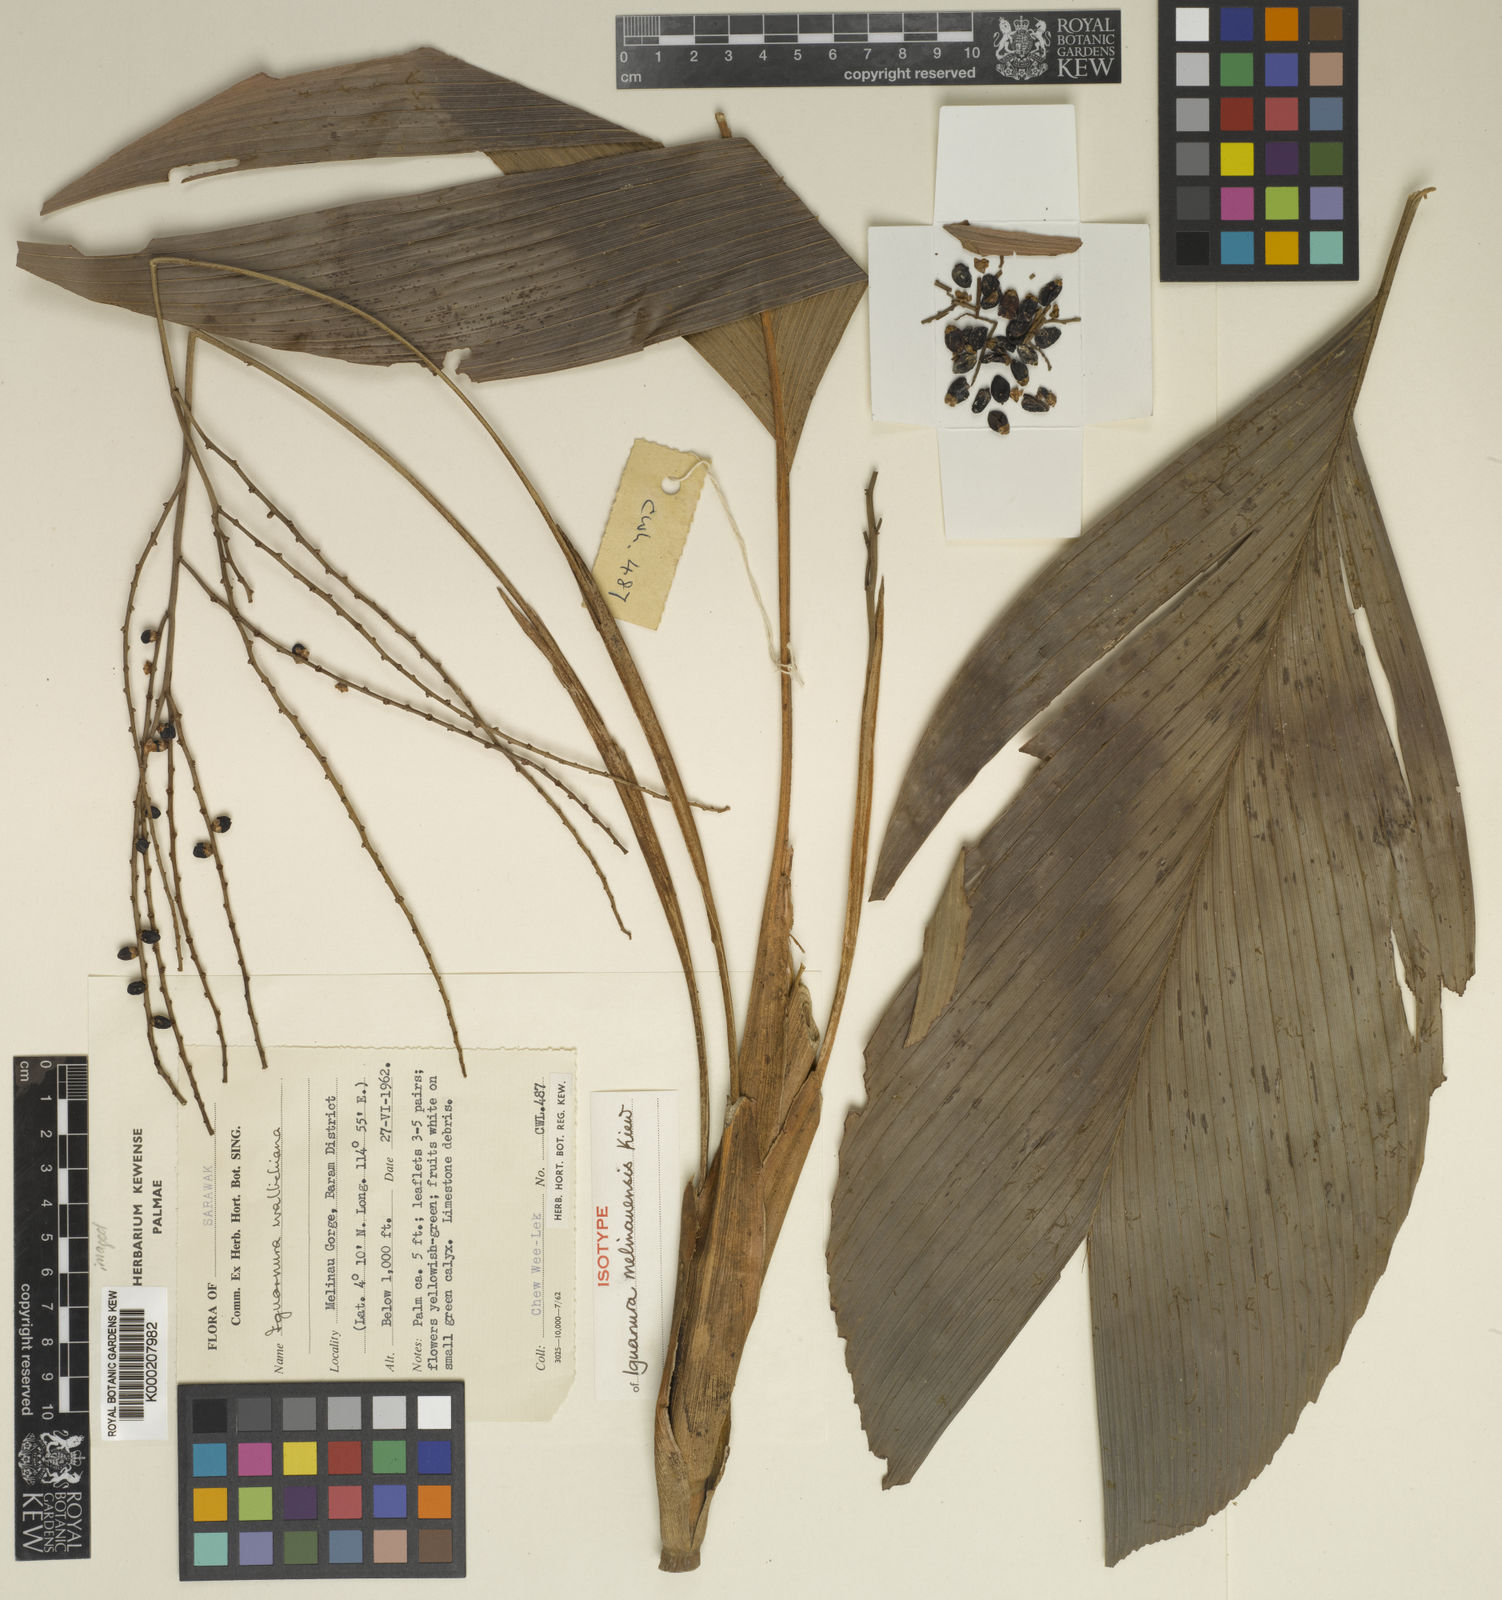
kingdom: Plantae
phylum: Tracheophyta
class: Liliopsida
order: Arecales
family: Arecaceae
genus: Iguanura
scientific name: Iguanura melinauensis
